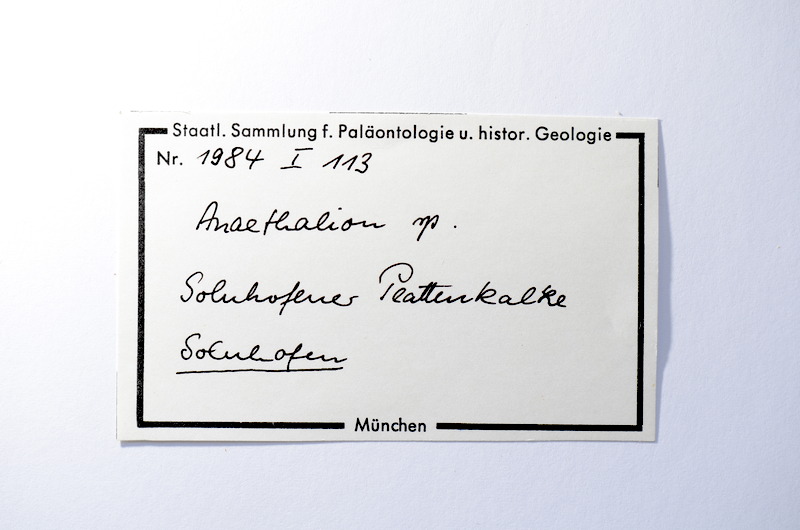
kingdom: Animalia
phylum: Chordata
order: Elopiformes
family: Anaethalionidae
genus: Anaethalion
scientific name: Anaethalion
